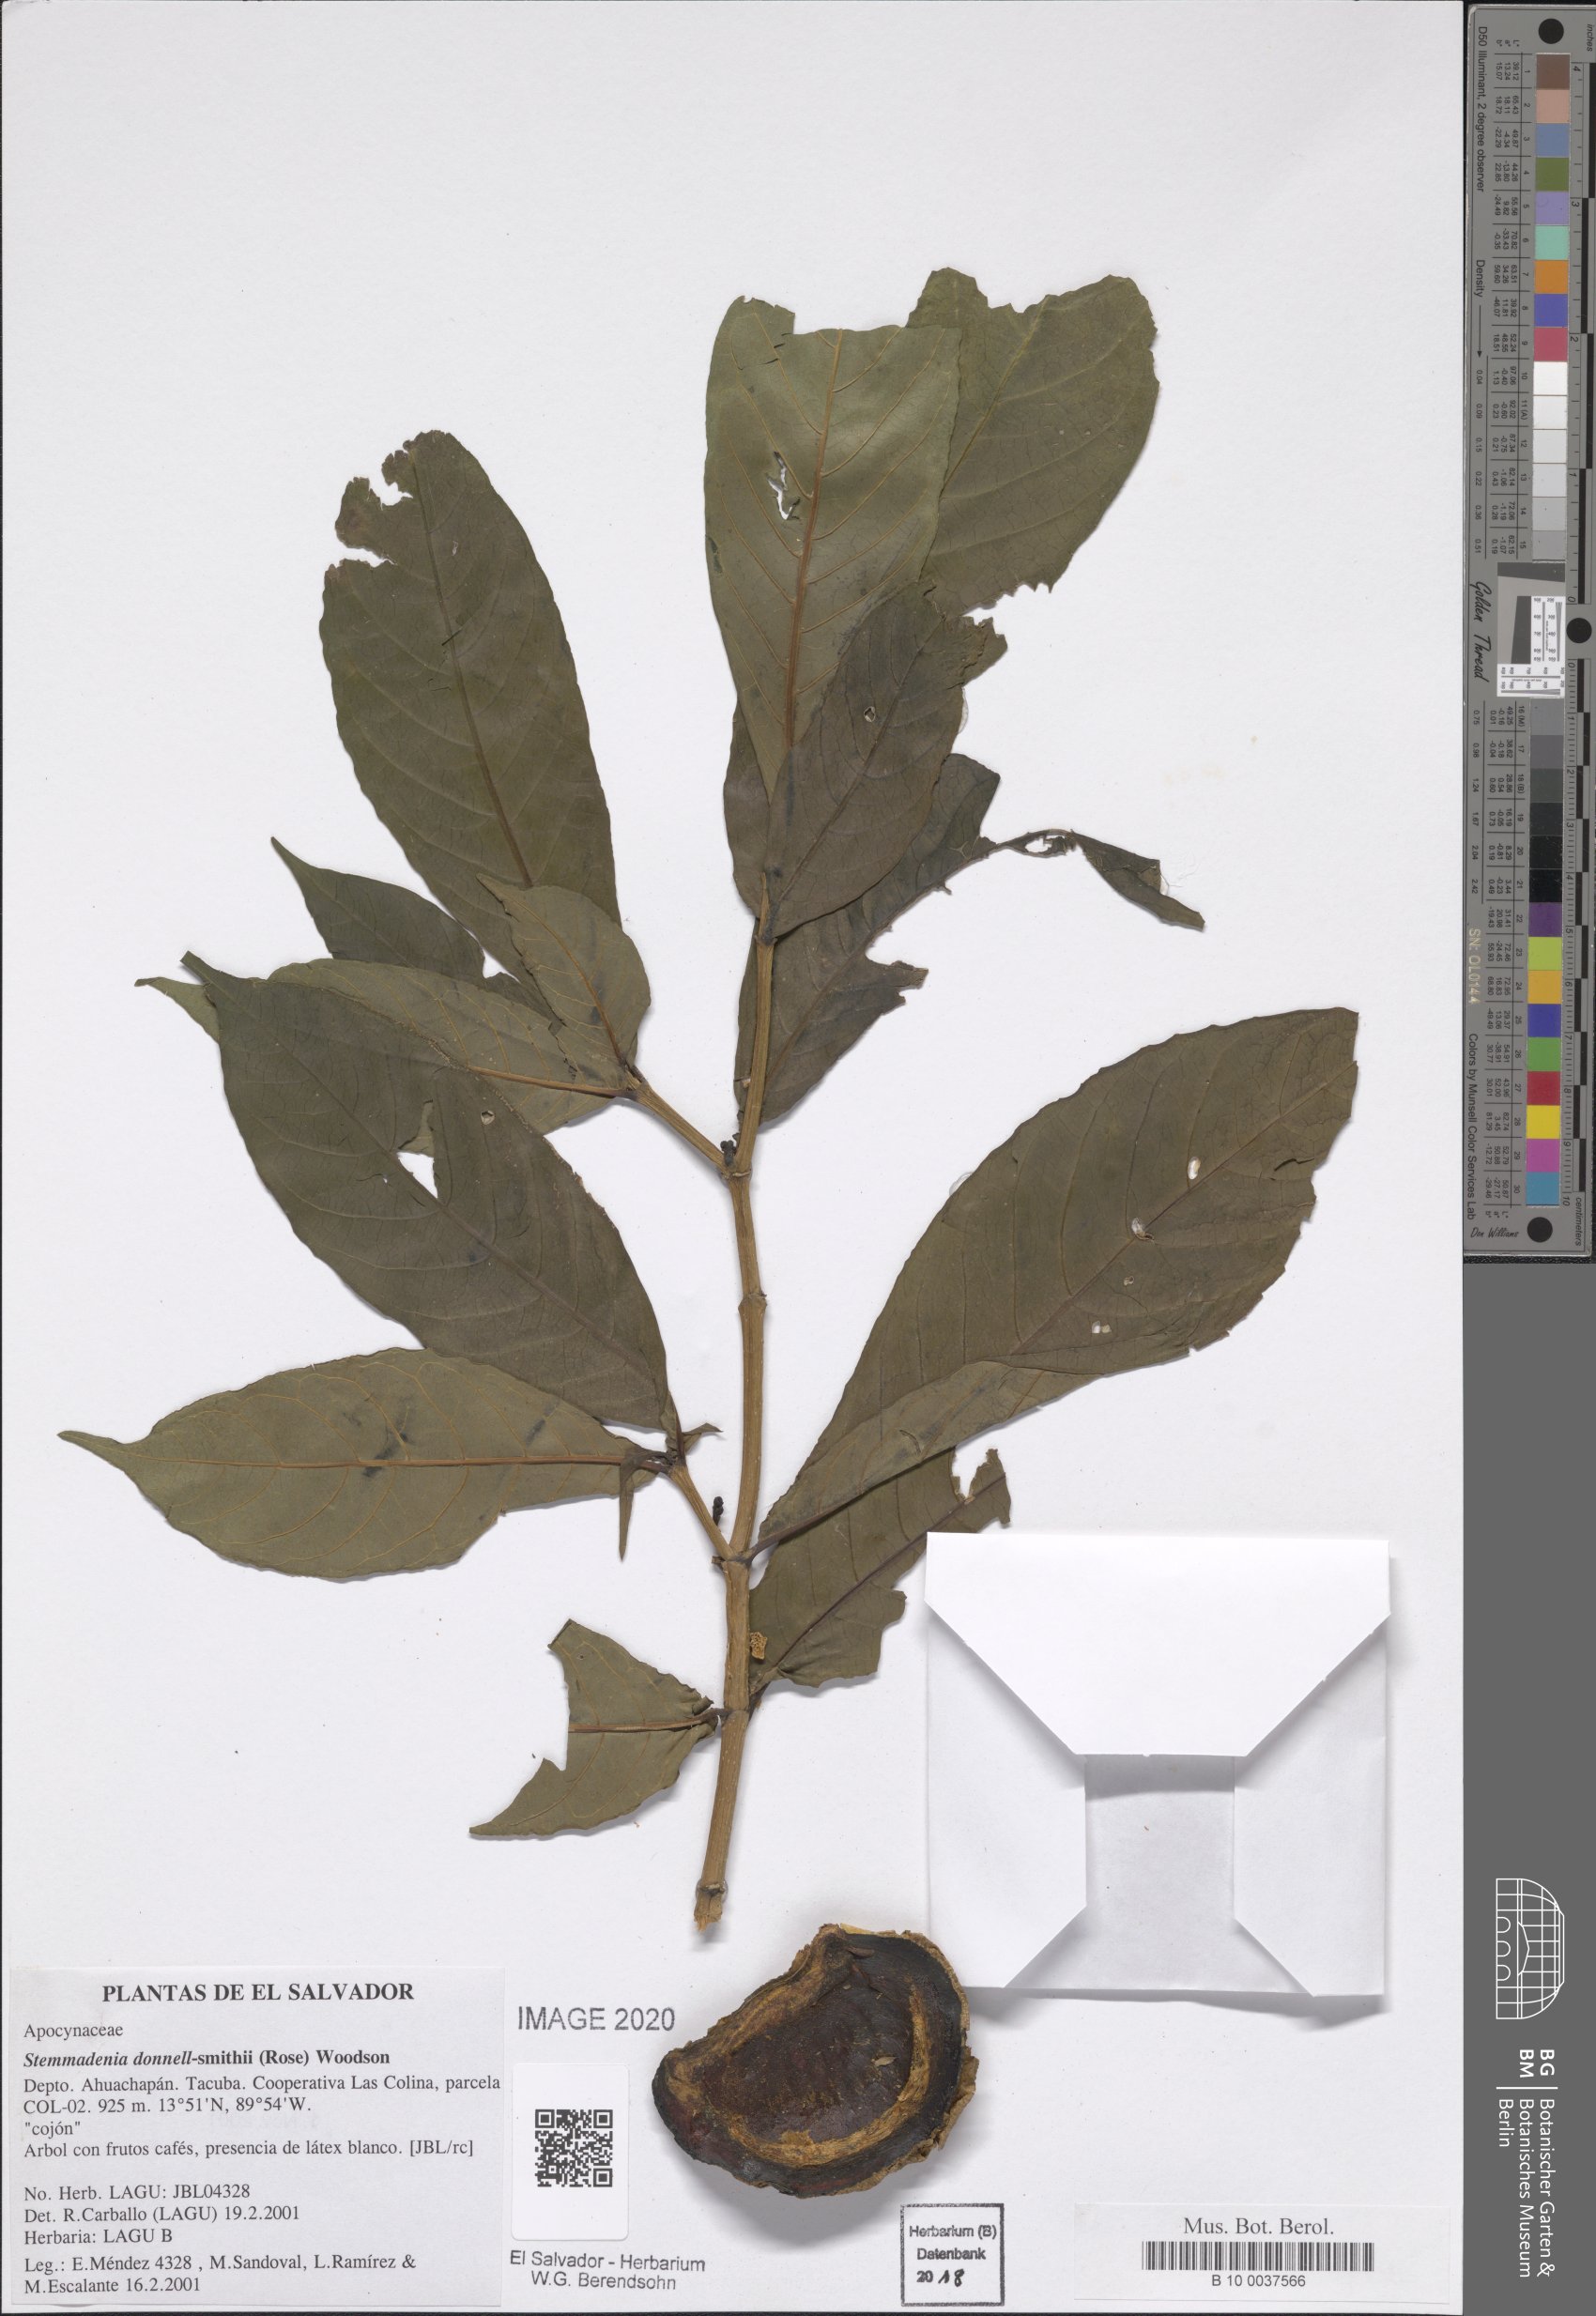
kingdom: Plantae
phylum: Tracheophyta
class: Magnoliopsida
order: Gentianales
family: Apocynaceae
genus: Tabernaemontana
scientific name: Tabernaemontana donnell-smithii
